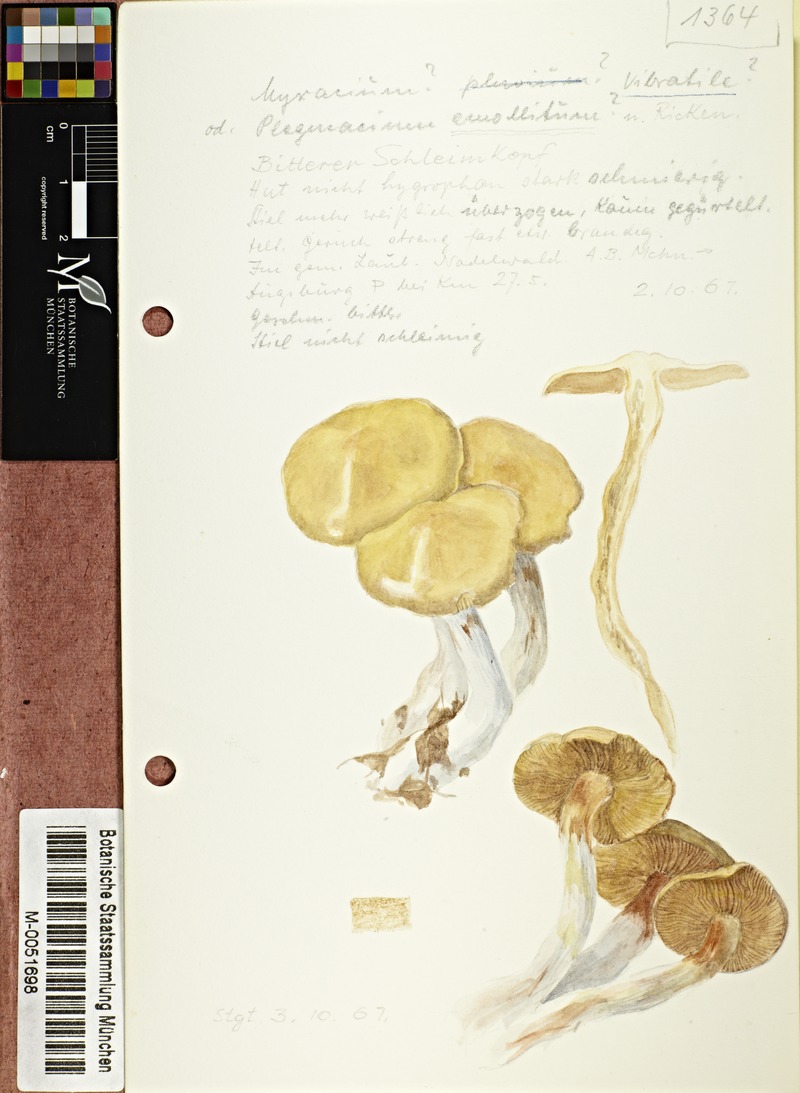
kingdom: Fungi
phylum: Basidiomycota
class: Agaricomycetes
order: Agaricales
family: Cortinariaceae
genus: Thaxterogaster
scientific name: Thaxterogaster vibratilis
